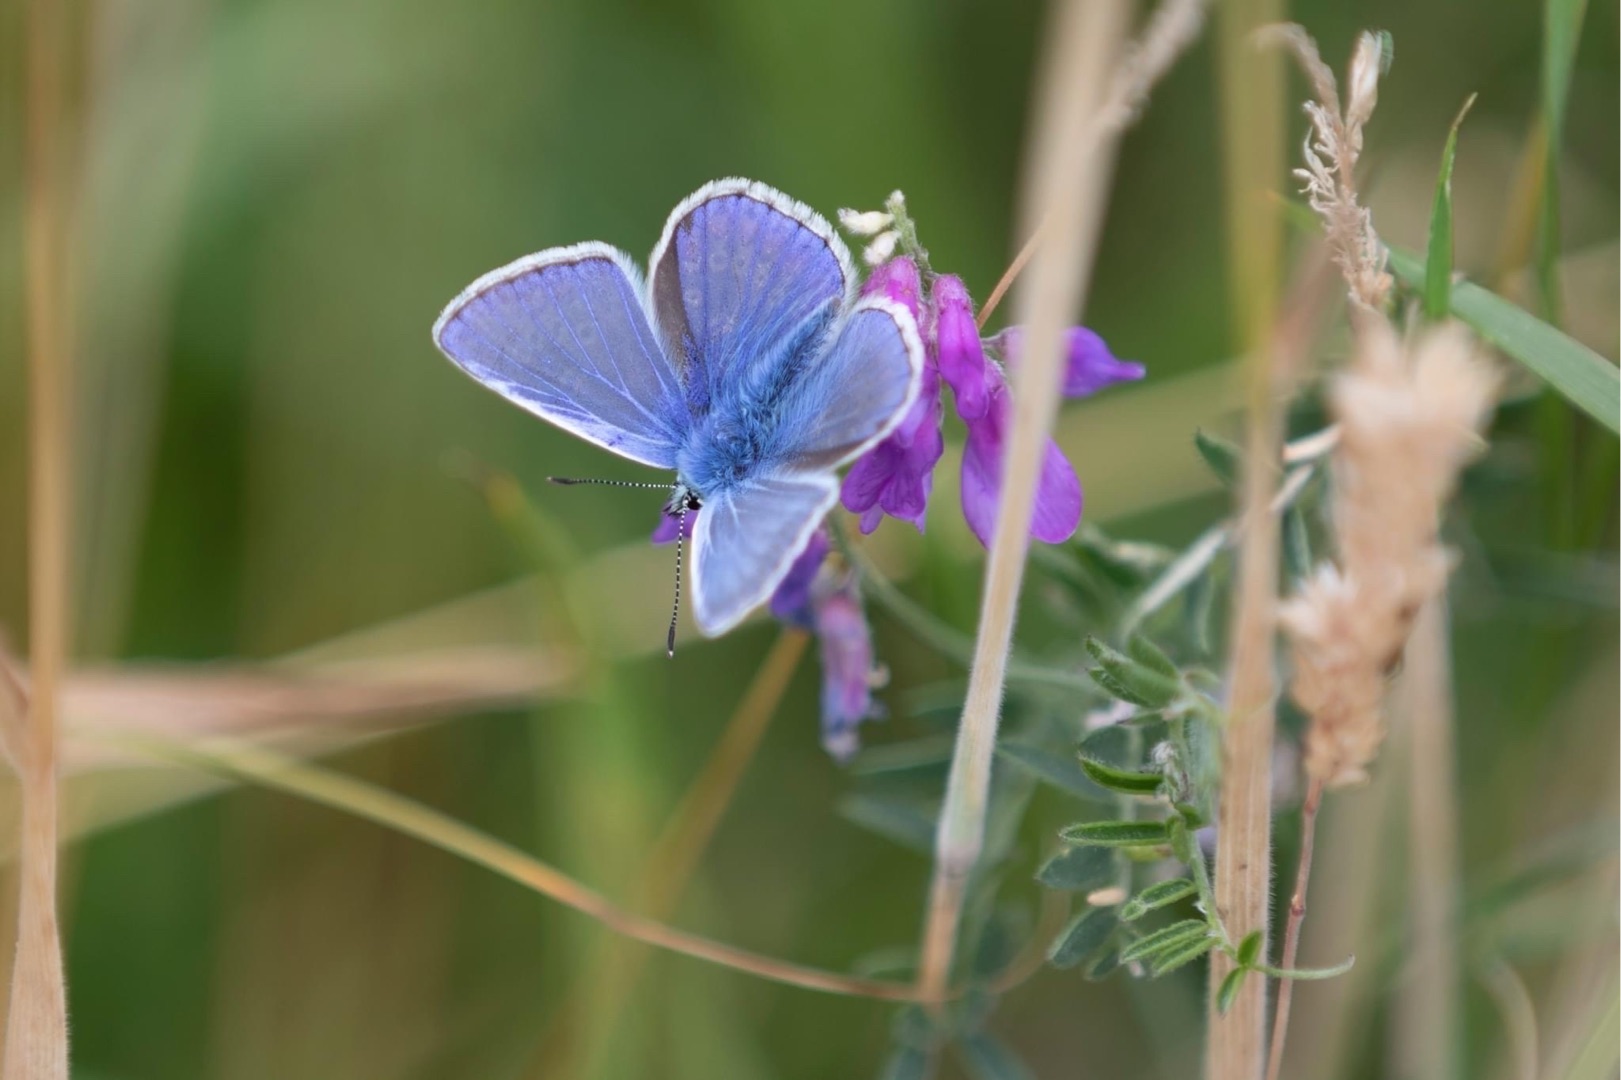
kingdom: Animalia
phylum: Arthropoda
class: Insecta
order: Lepidoptera
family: Lycaenidae
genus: Polyommatus
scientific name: Polyommatus icarus
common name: Almindelig blåfugl
